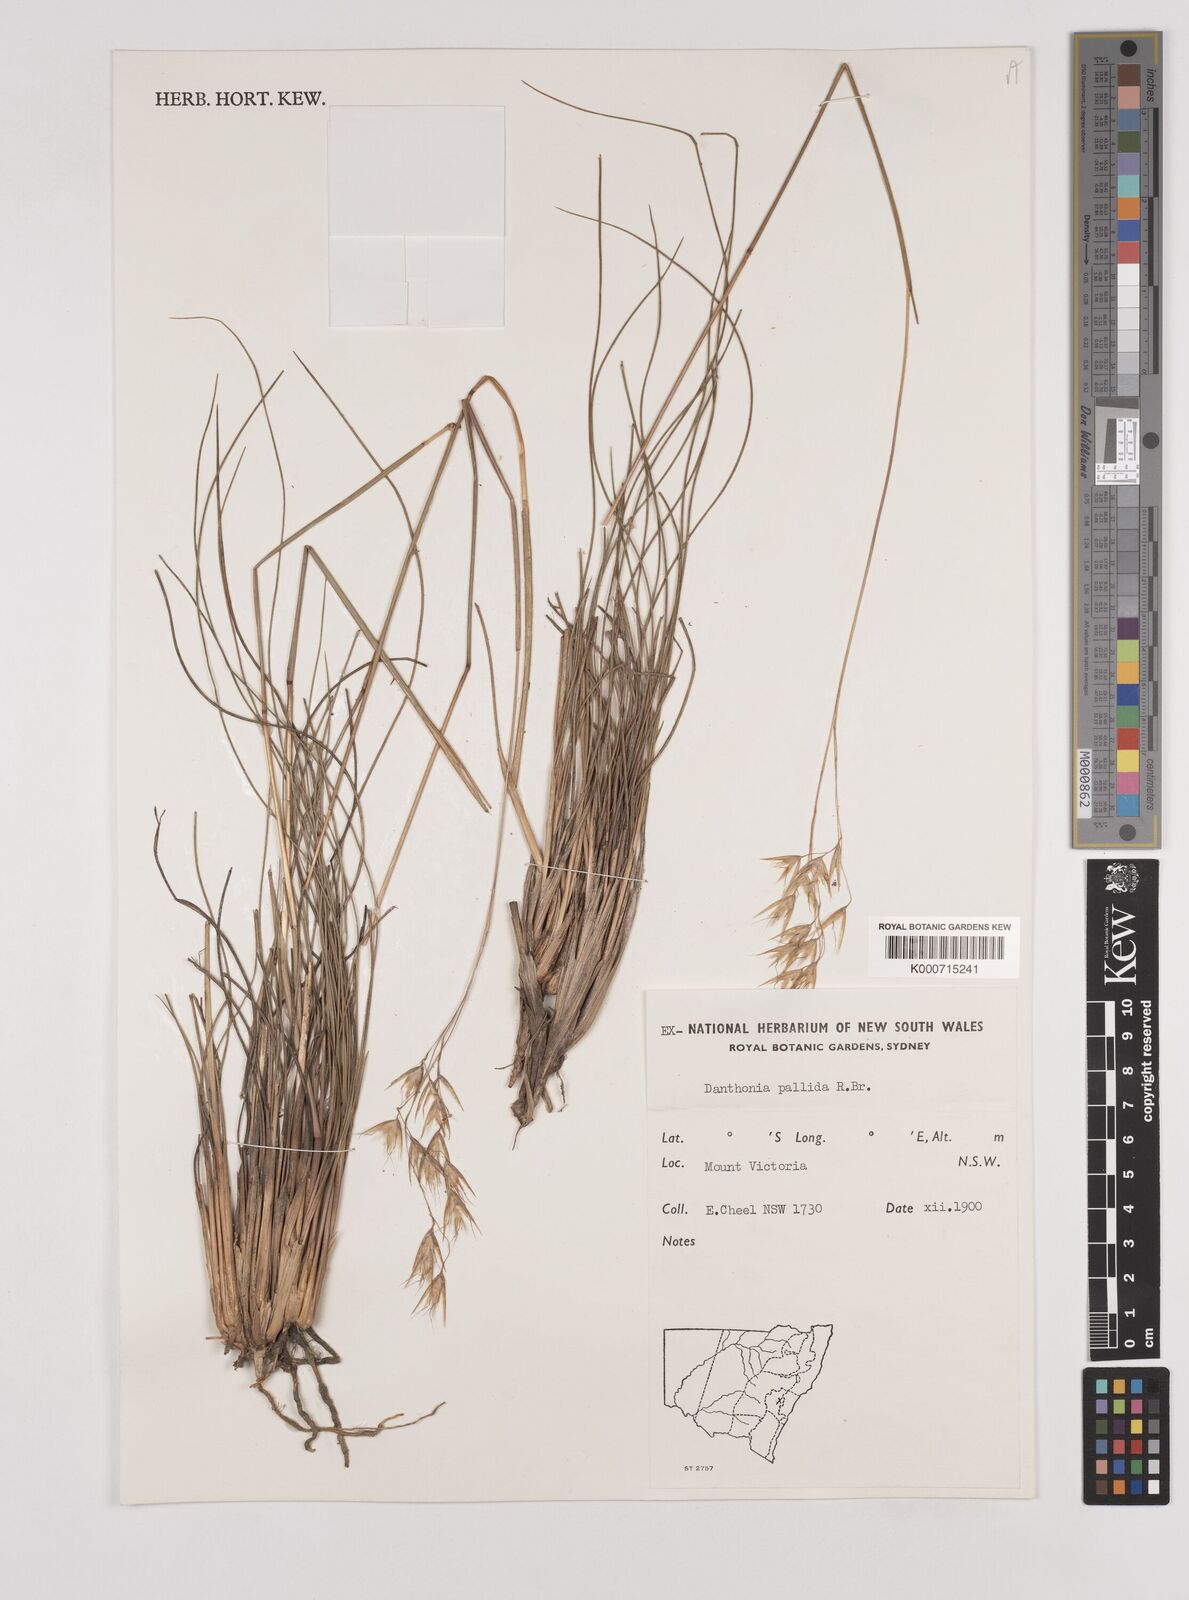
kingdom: Plantae
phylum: Tracheophyta
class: Liliopsida
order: Poales
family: Poaceae
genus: Rytidosperma
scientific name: Rytidosperma
